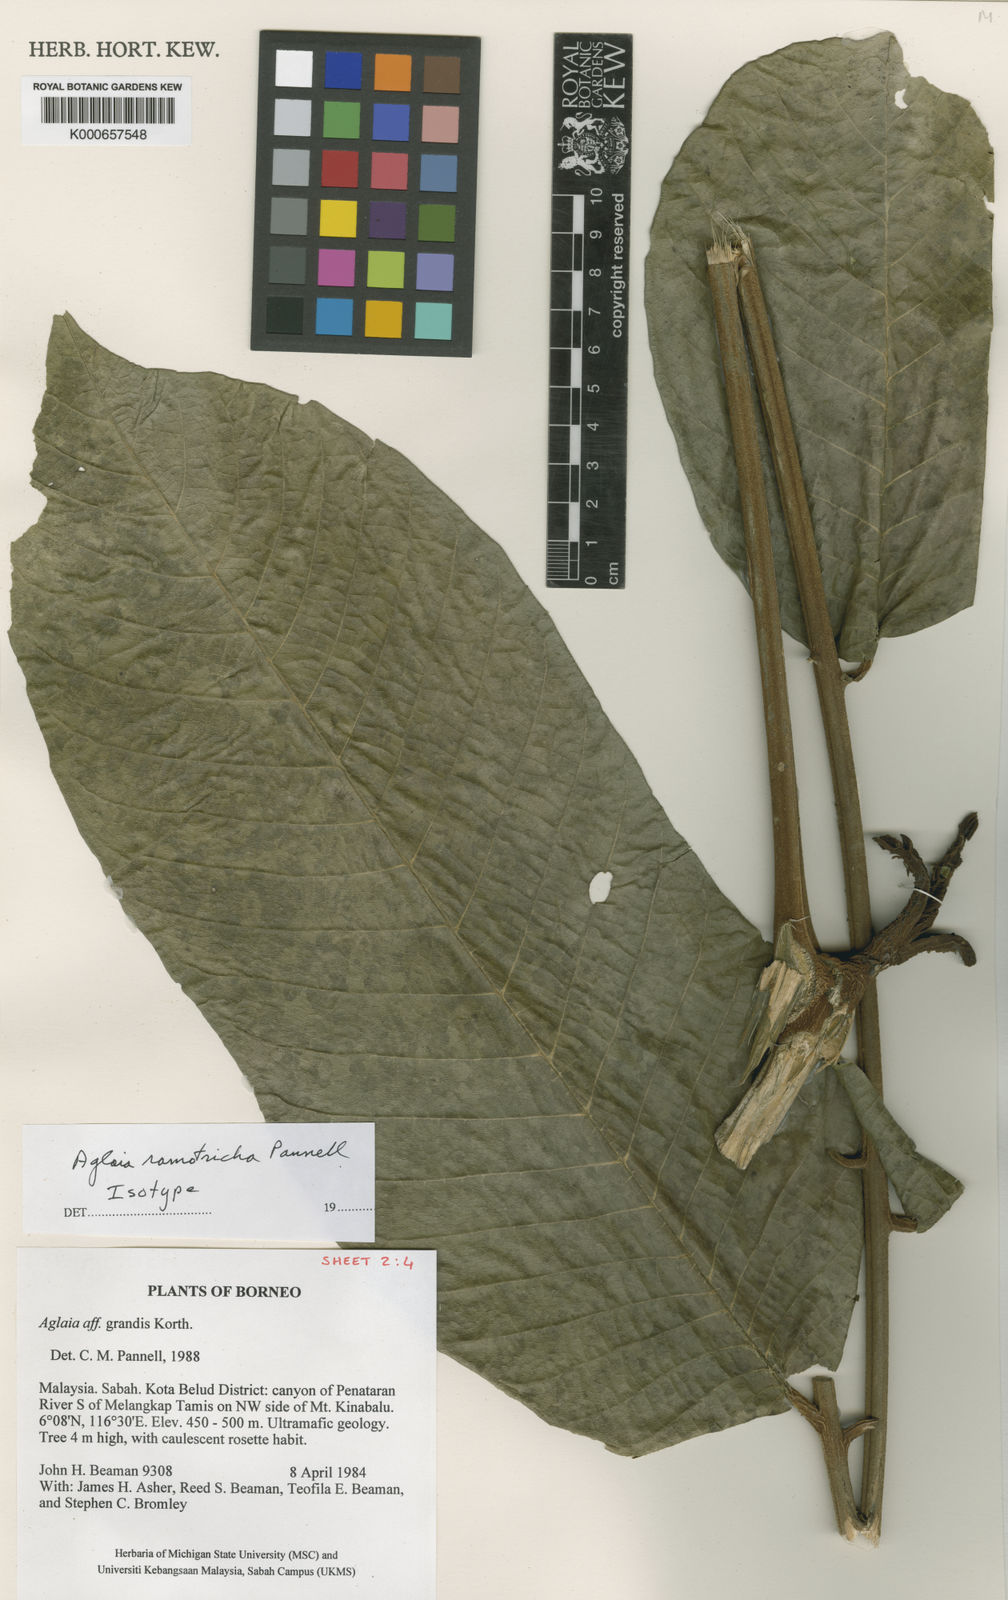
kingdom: Plantae
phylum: Tracheophyta
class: Magnoliopsida
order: Sapindales
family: Meliaceae
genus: Aglaia
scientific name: Aglaia ramotricha
